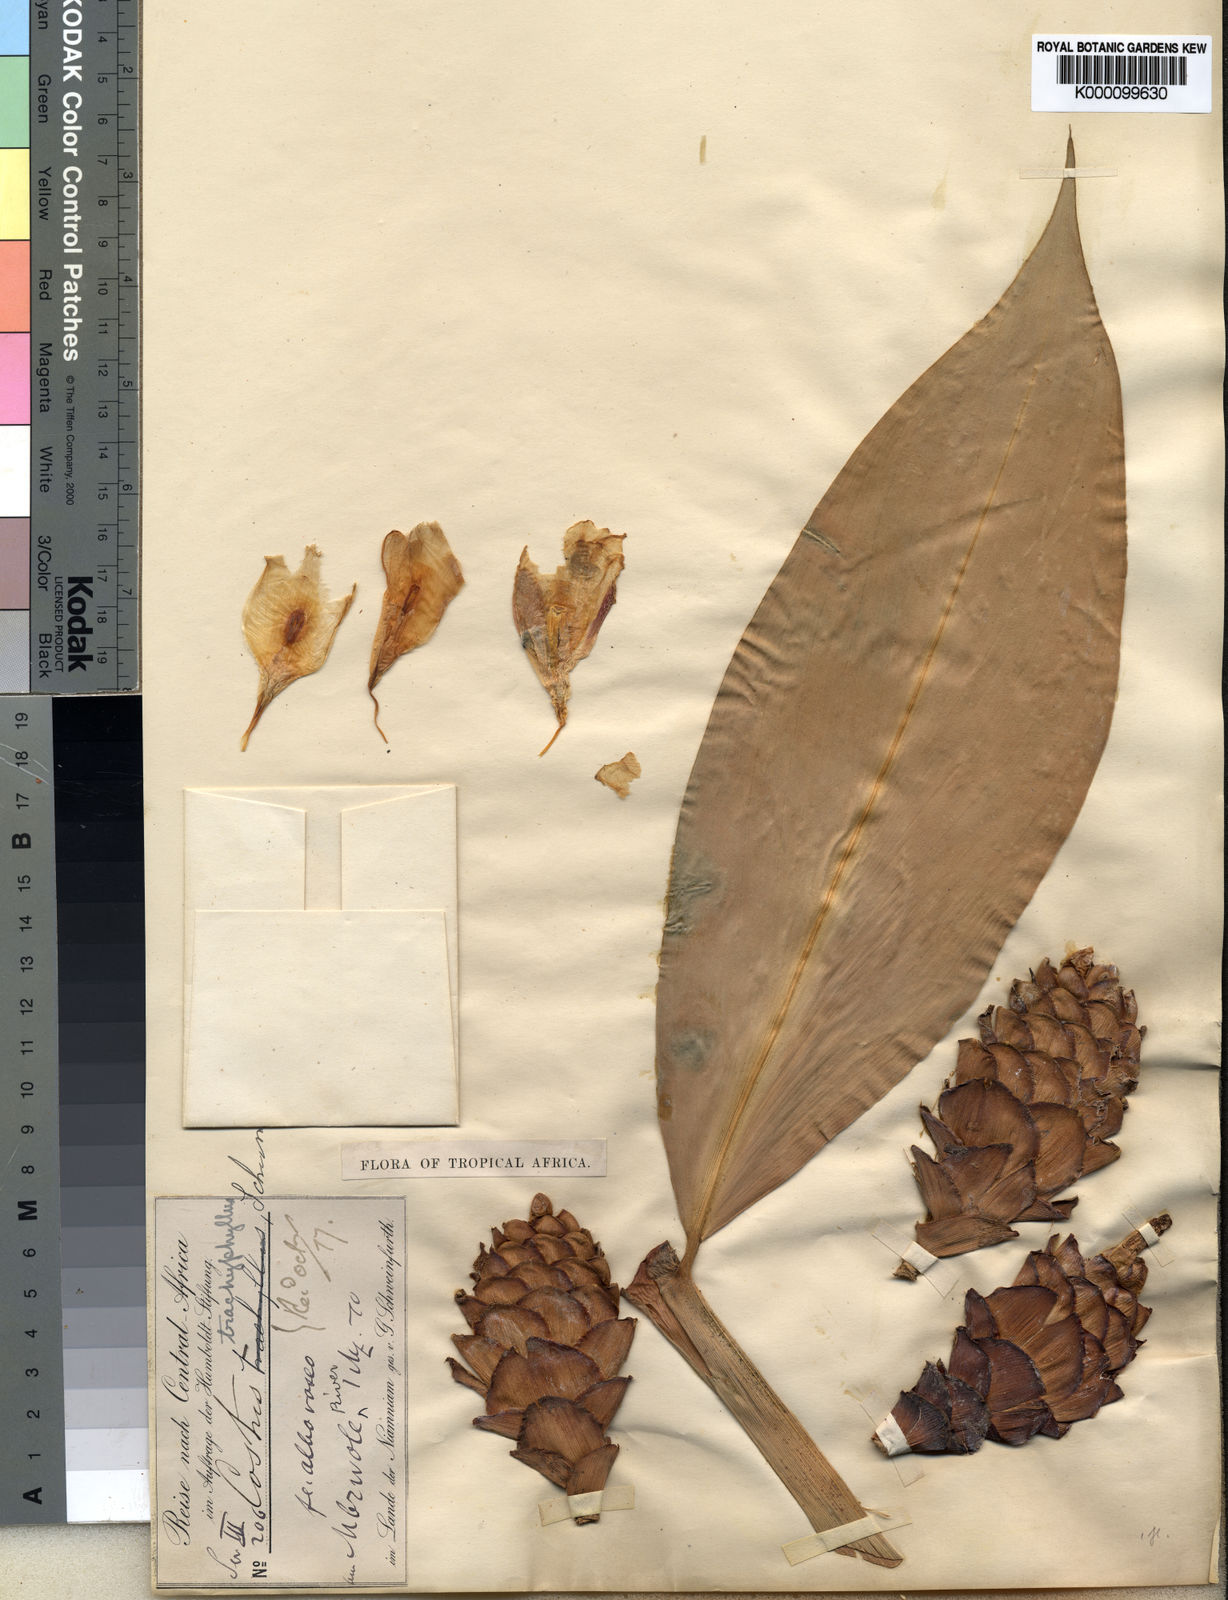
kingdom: Plantae
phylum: Tracheophyta
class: Liliopsida
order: Zingiberales
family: Costaceae
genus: Costus
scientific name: Costus afer
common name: Spiral-ginger
